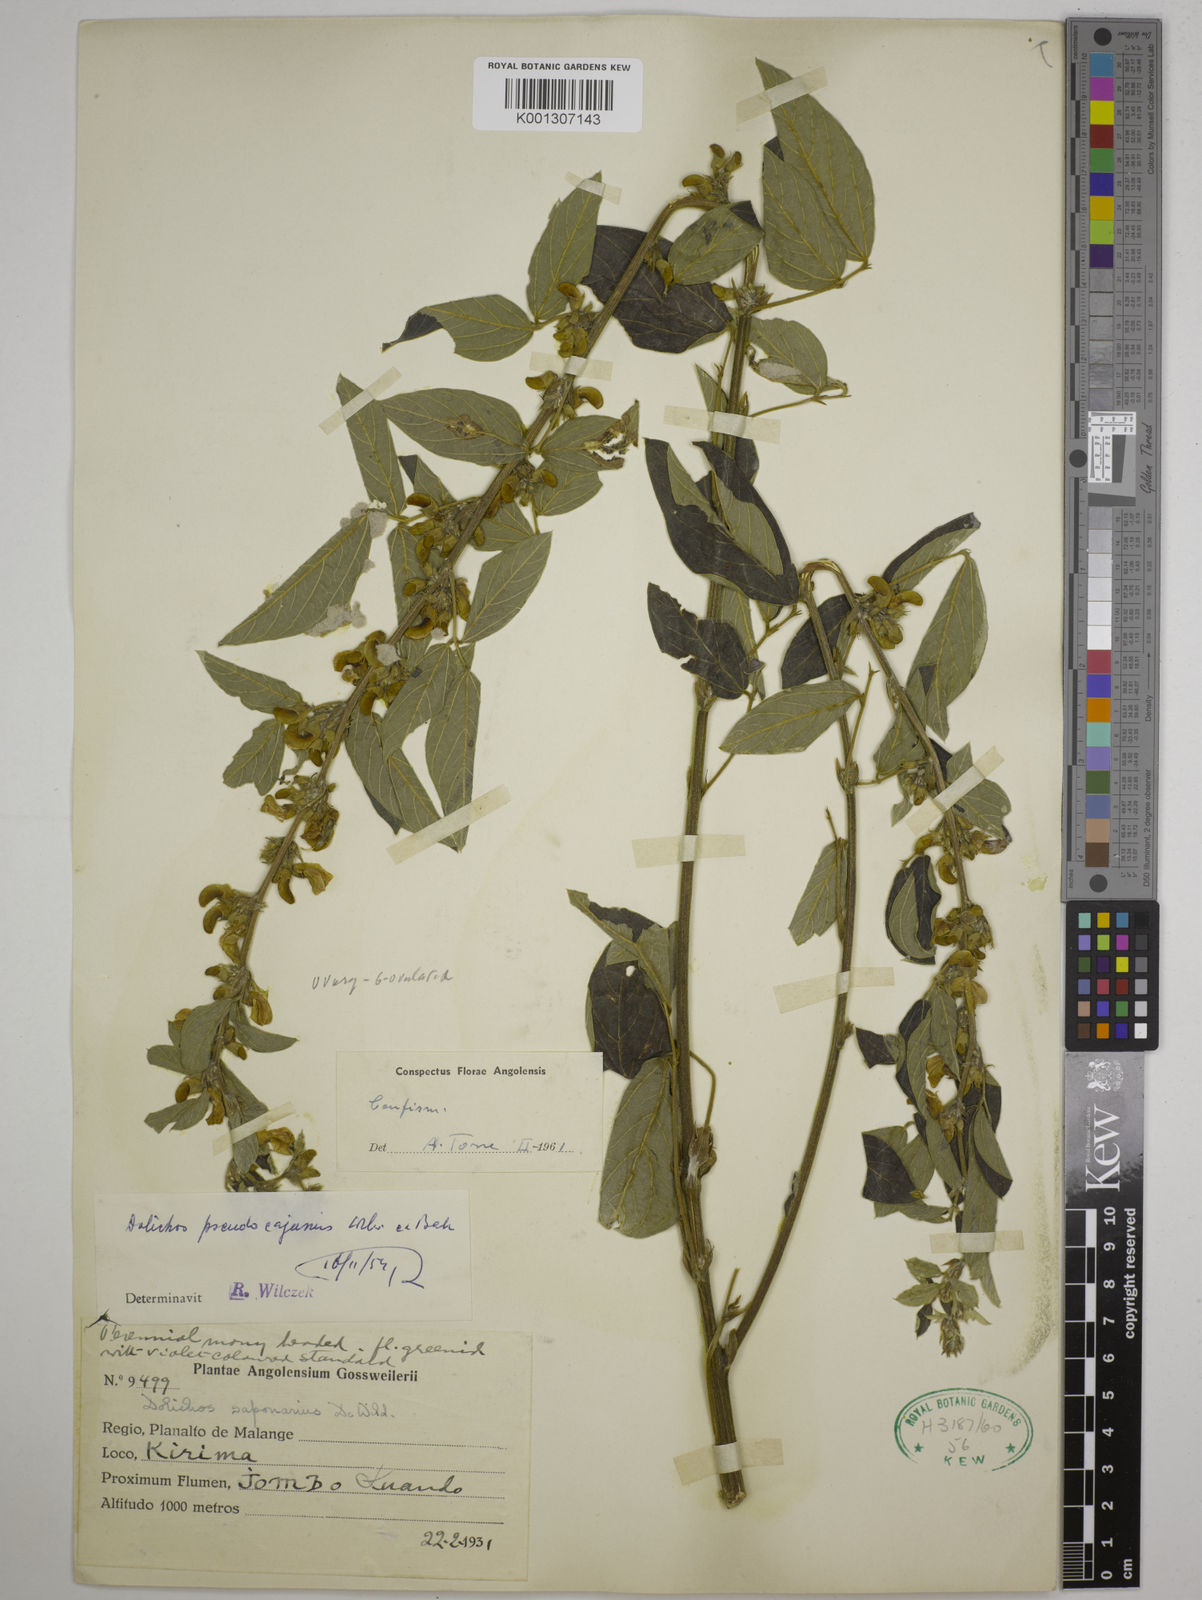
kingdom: Plantae
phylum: Tracheophyta
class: Magnoliopsida
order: Fabales
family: Fabaceae
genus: Dolichos
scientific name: Dolichos pseudocajanus
